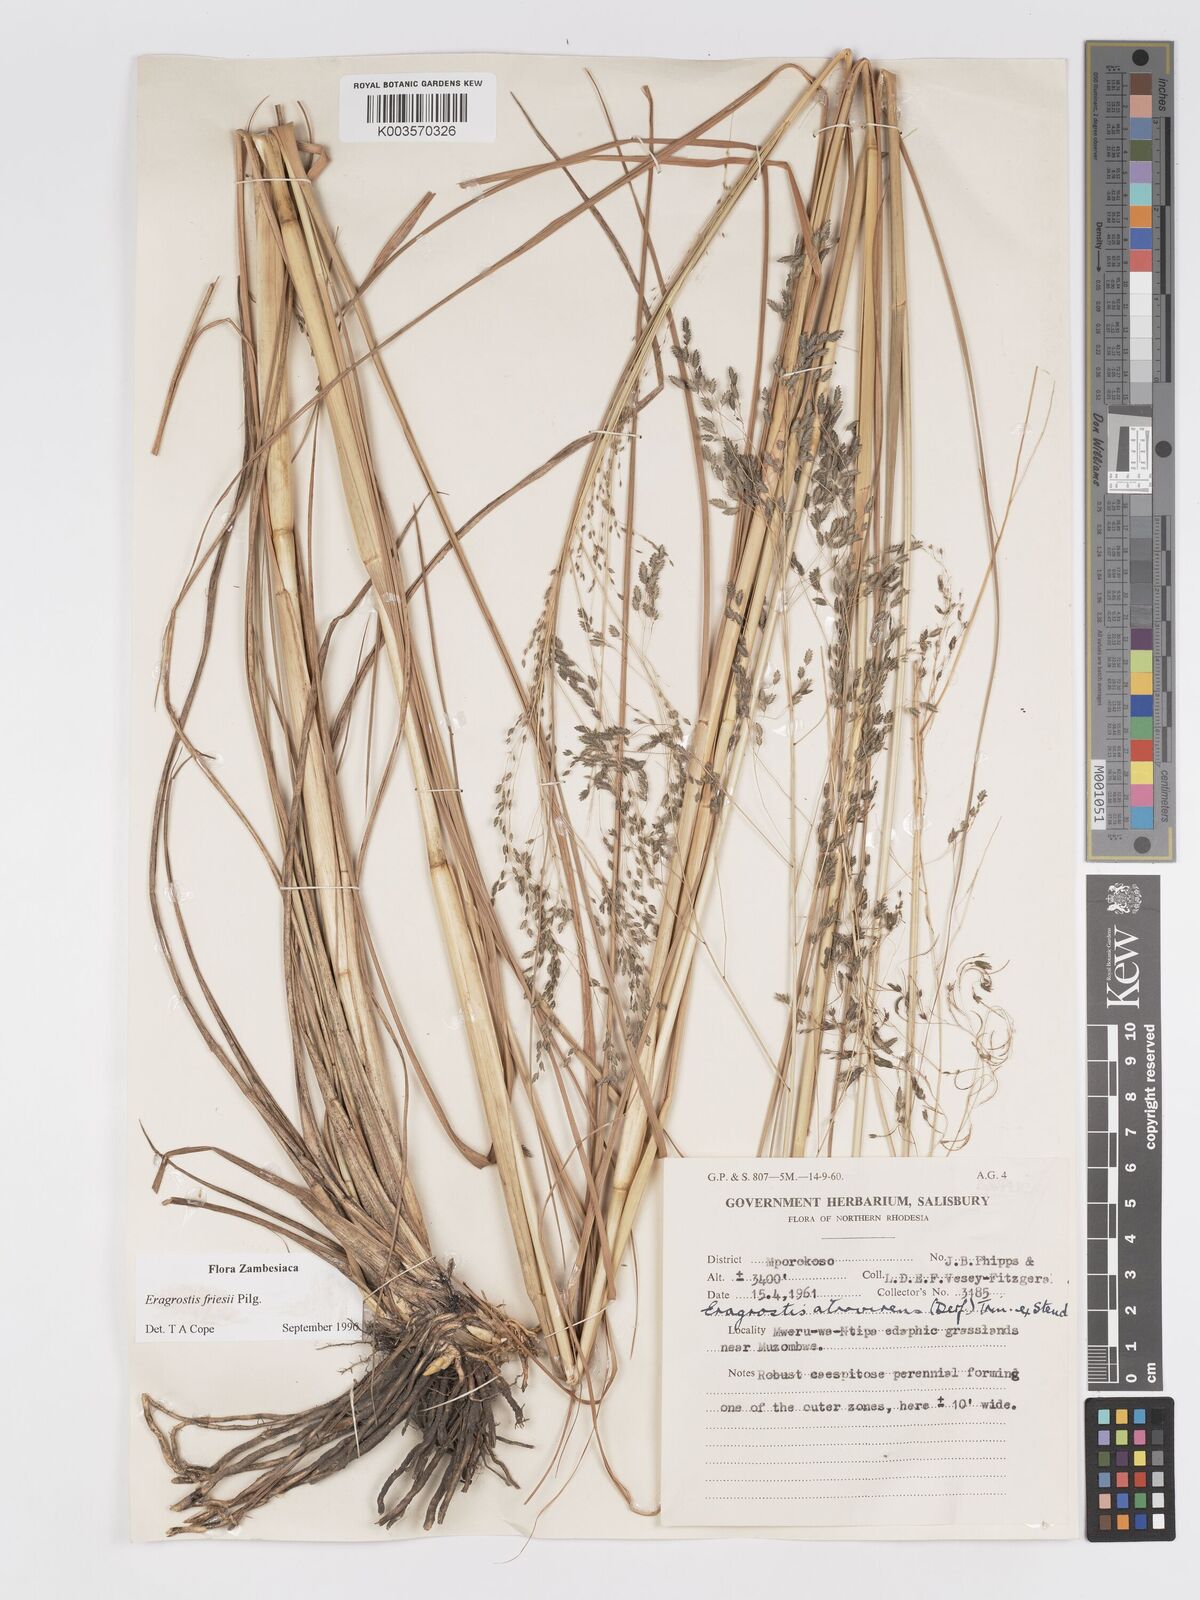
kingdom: Plantae
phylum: Tracheophyta
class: Liliopsida
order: Poales
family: Poaceae
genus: Eragrostis
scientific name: Eragrostis friesii
